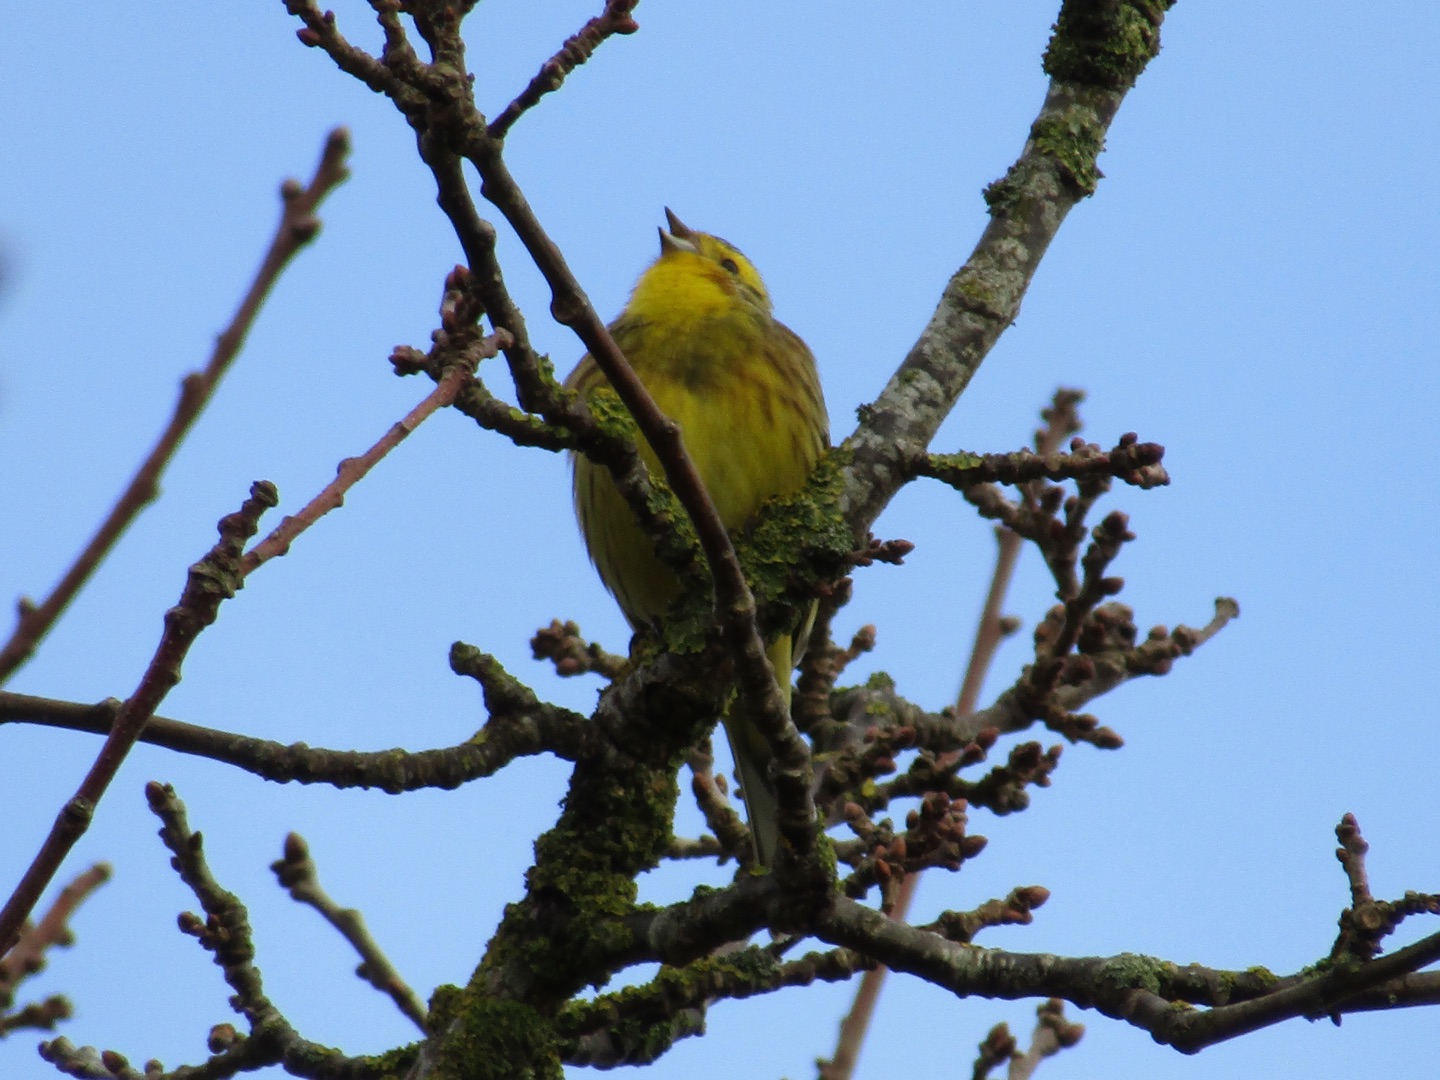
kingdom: Animalia
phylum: Chordata
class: Aves
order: Passeriformes
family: Emberizidae
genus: Emberiza
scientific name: Emberiza citrinella
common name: Gulspurv
